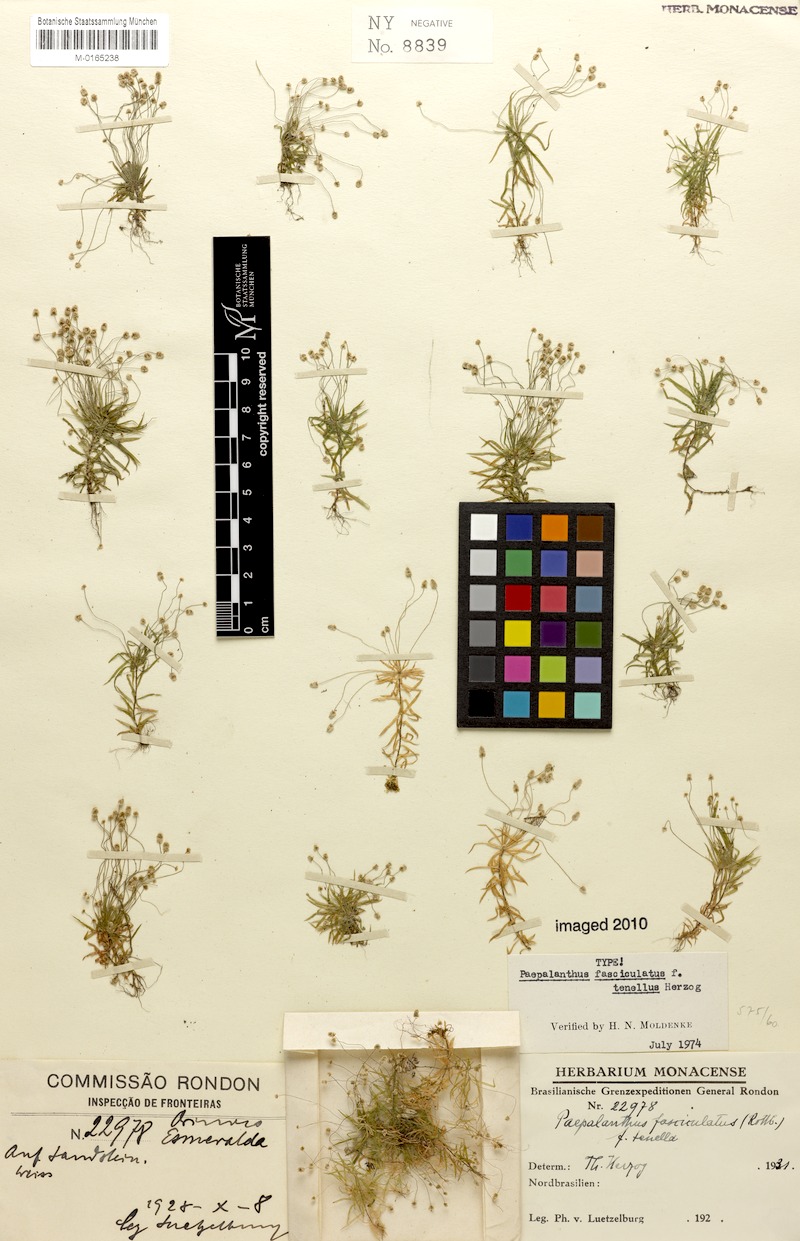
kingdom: Plantae
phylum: Tracheophyta
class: Liliopsida
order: Poales
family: Eriocaulaceae
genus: Paepalanthus
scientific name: Paepalanthus fasciculatus
